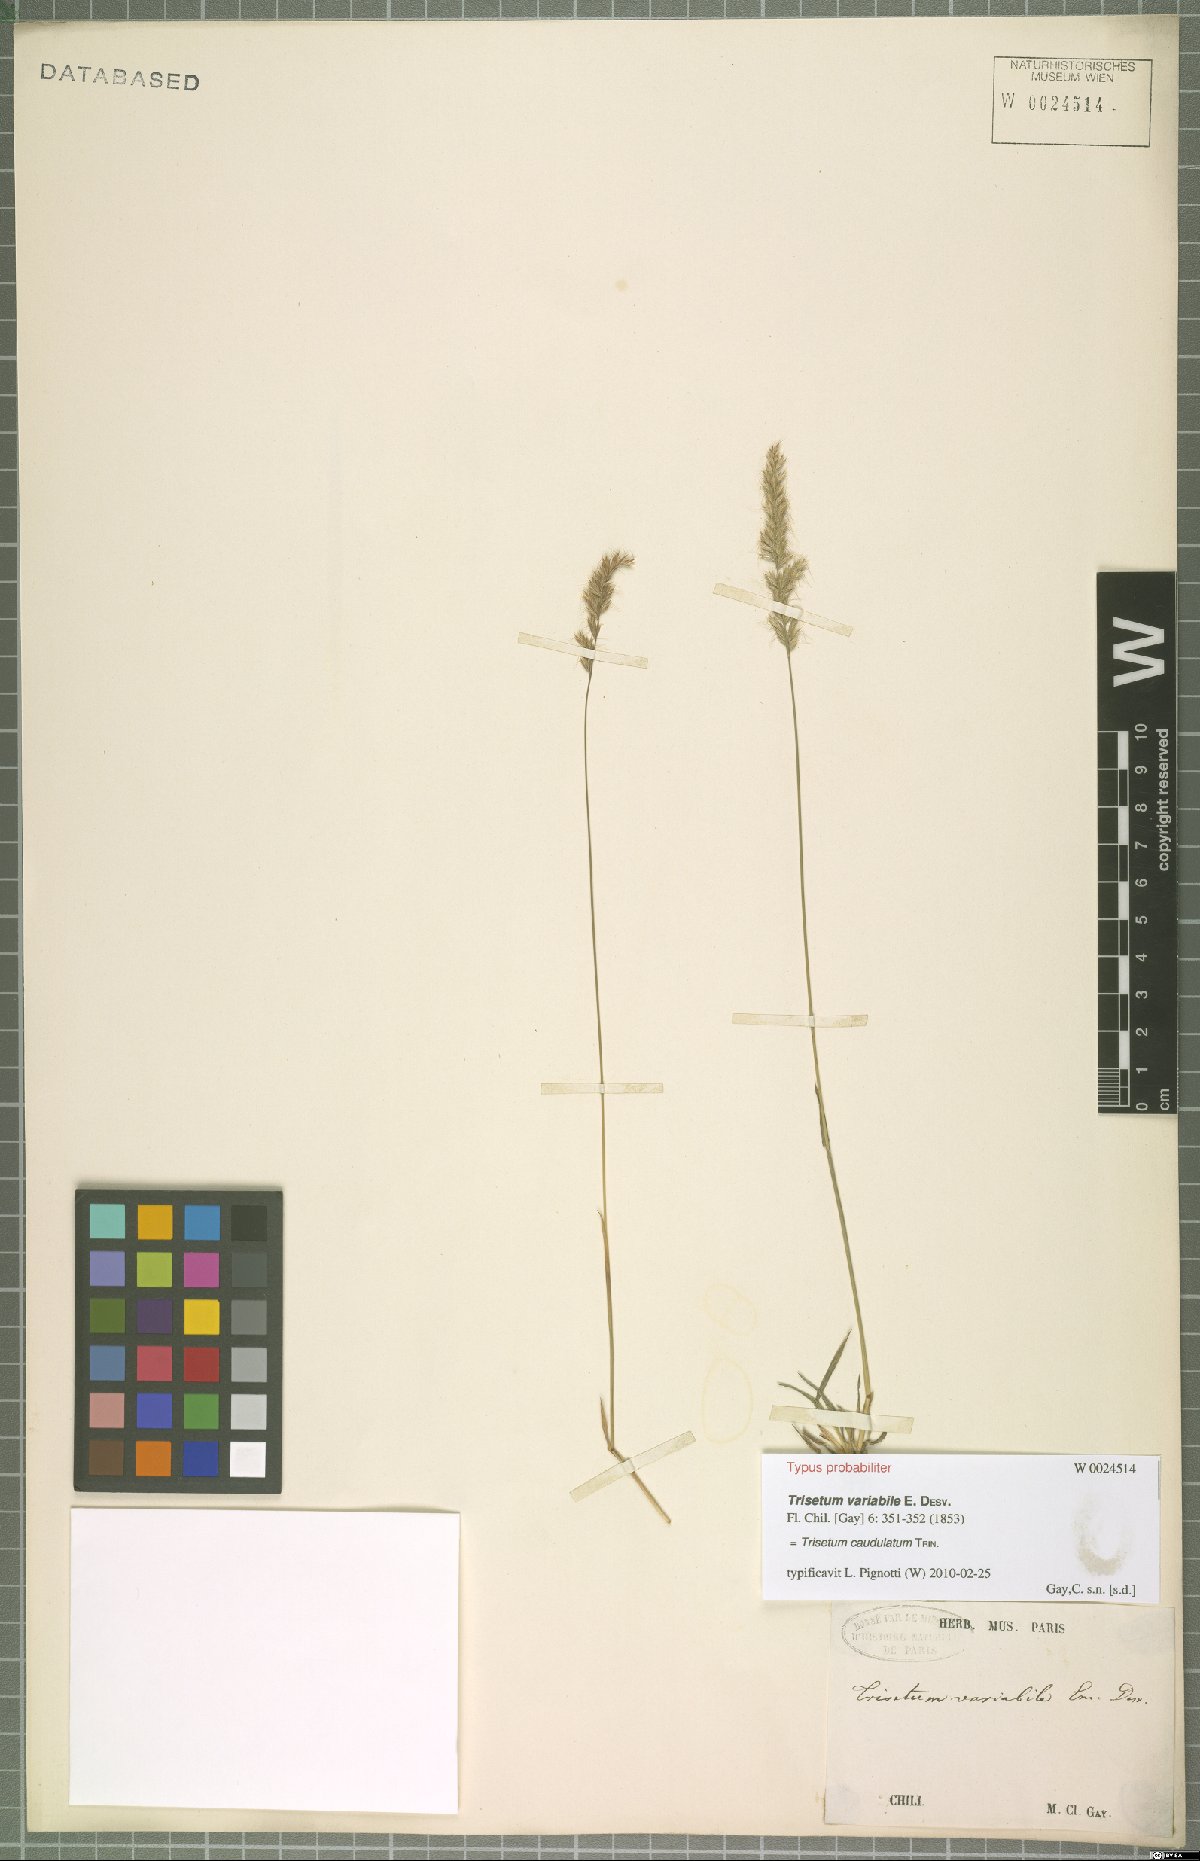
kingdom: Plantae
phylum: Tracheophyta
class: Liliopsida
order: Poales
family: Poaceae
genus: Trisetum
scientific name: Trisetum caudulatum
